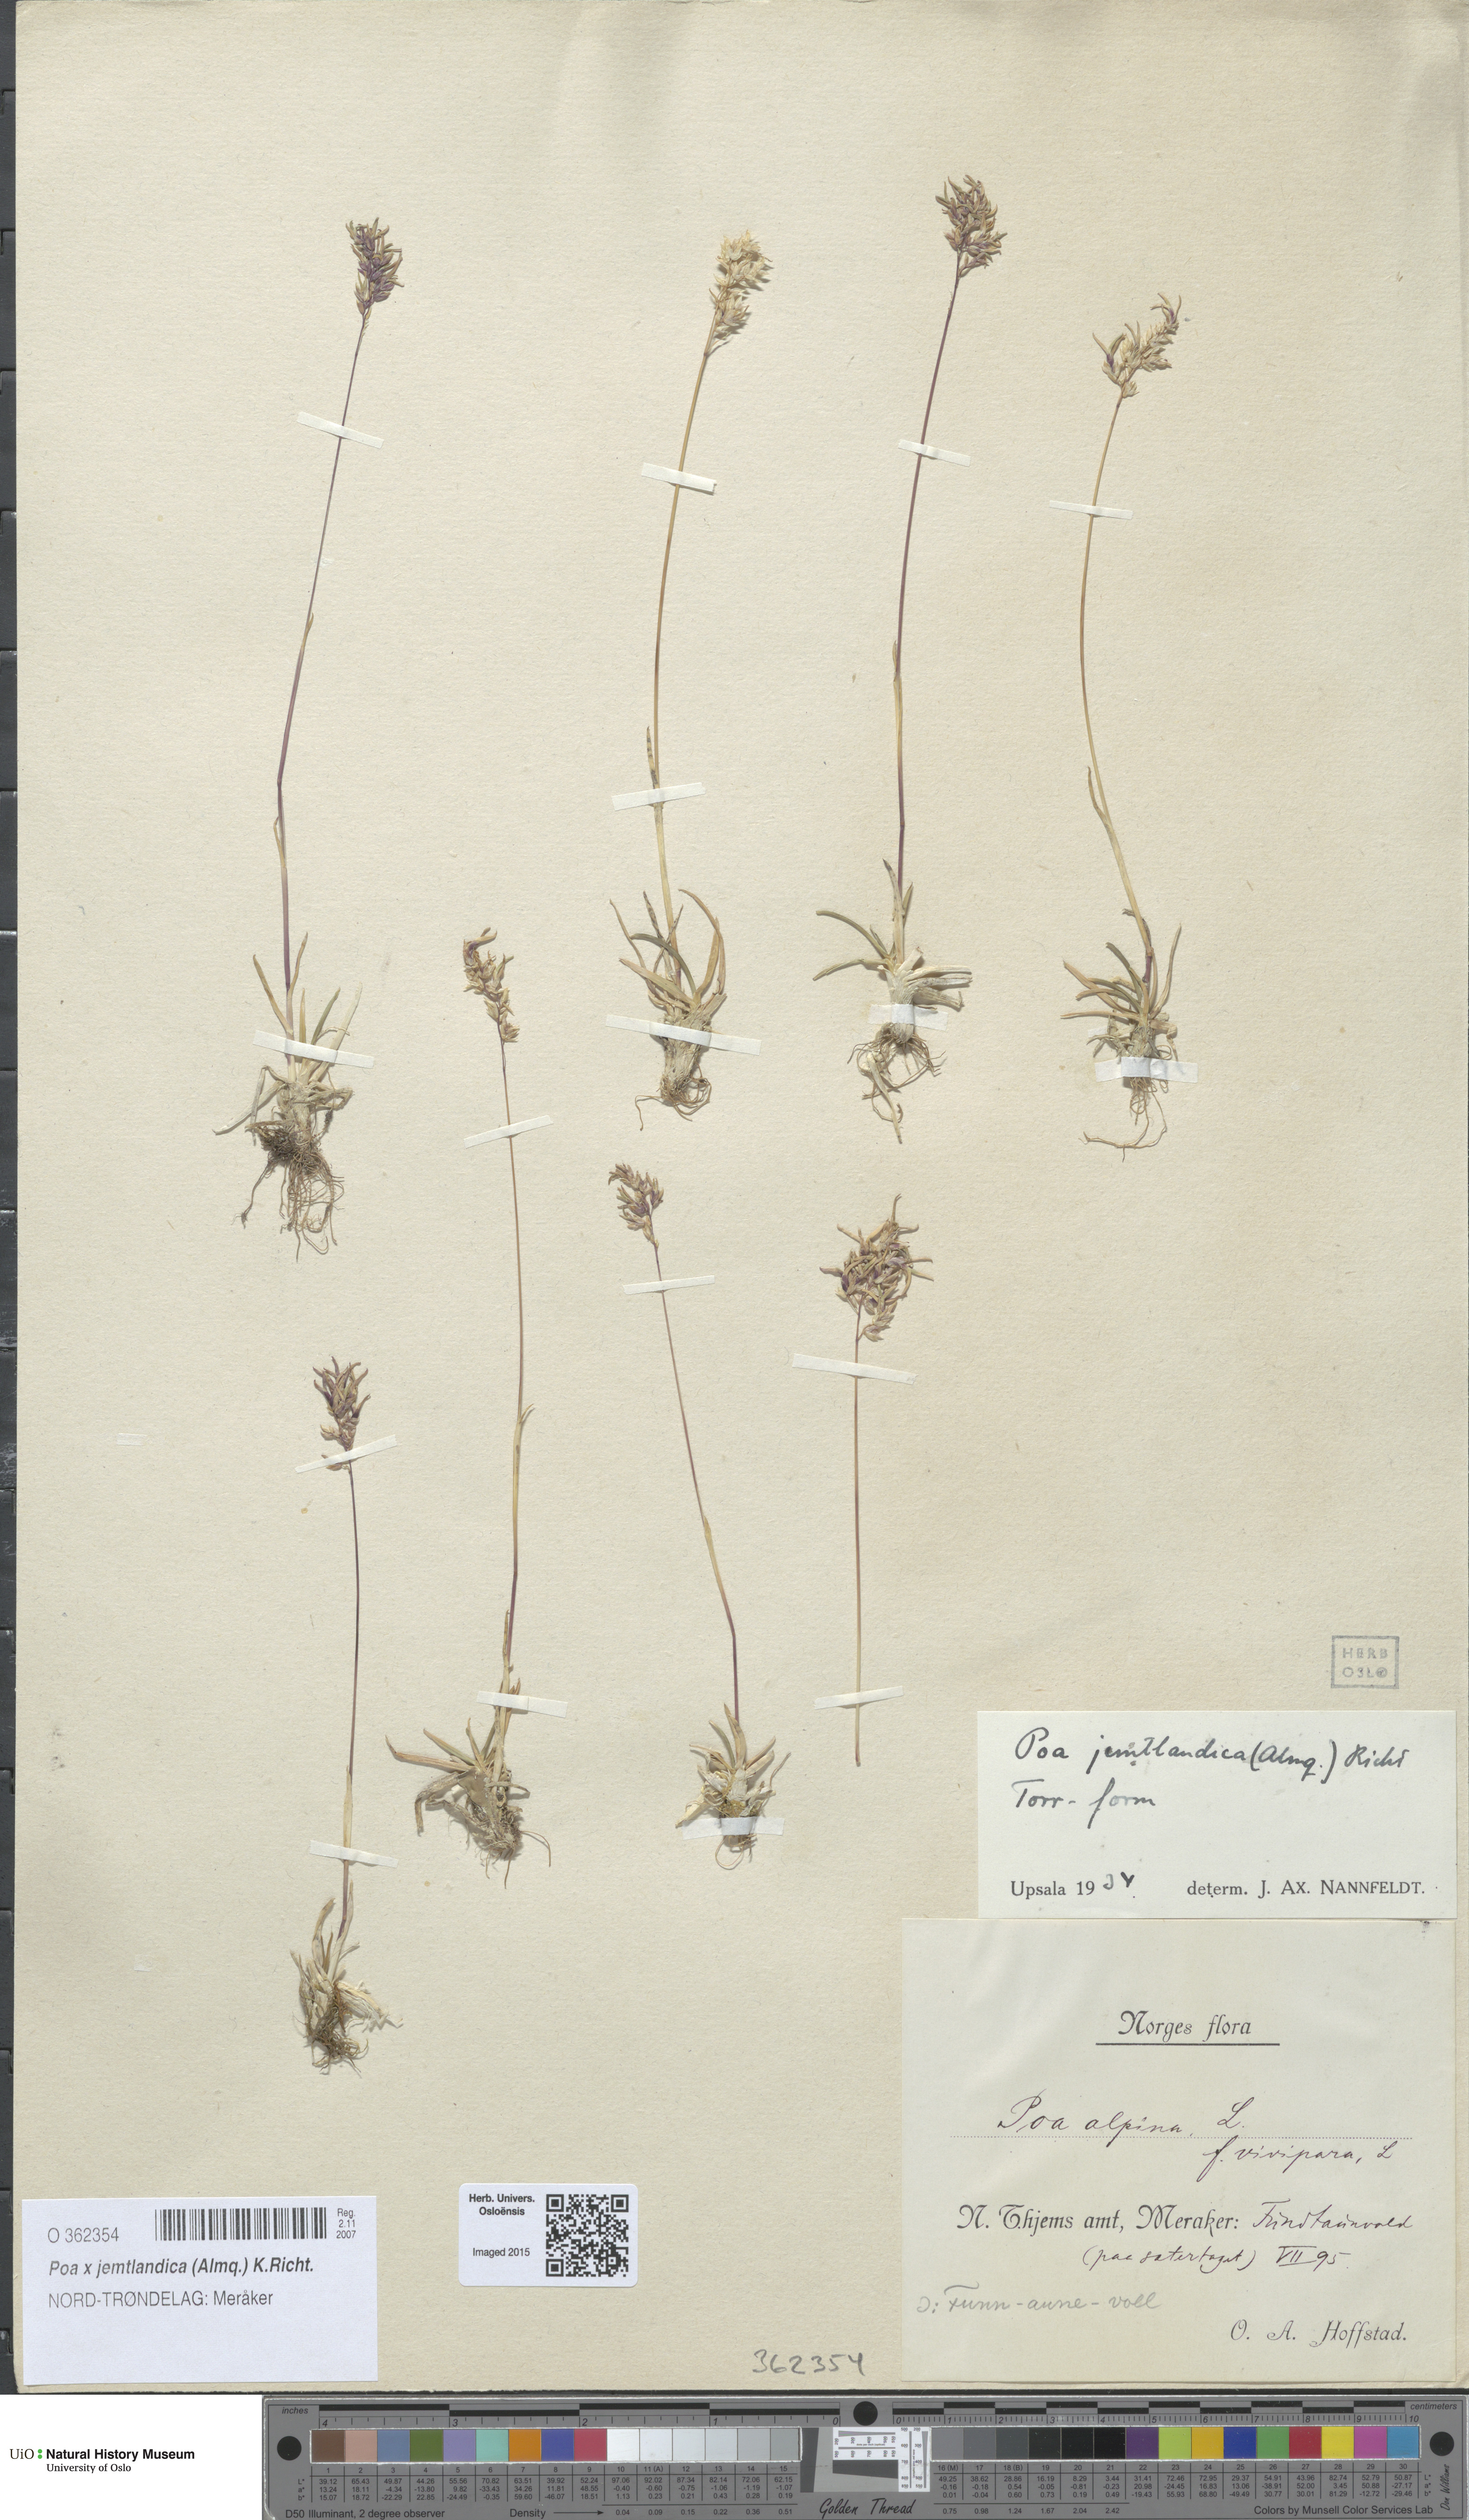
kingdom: Plantae
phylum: Tracheophyta
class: Liliopsida
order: Poales
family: Poaceae
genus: Poa
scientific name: Poa jemtlandica
